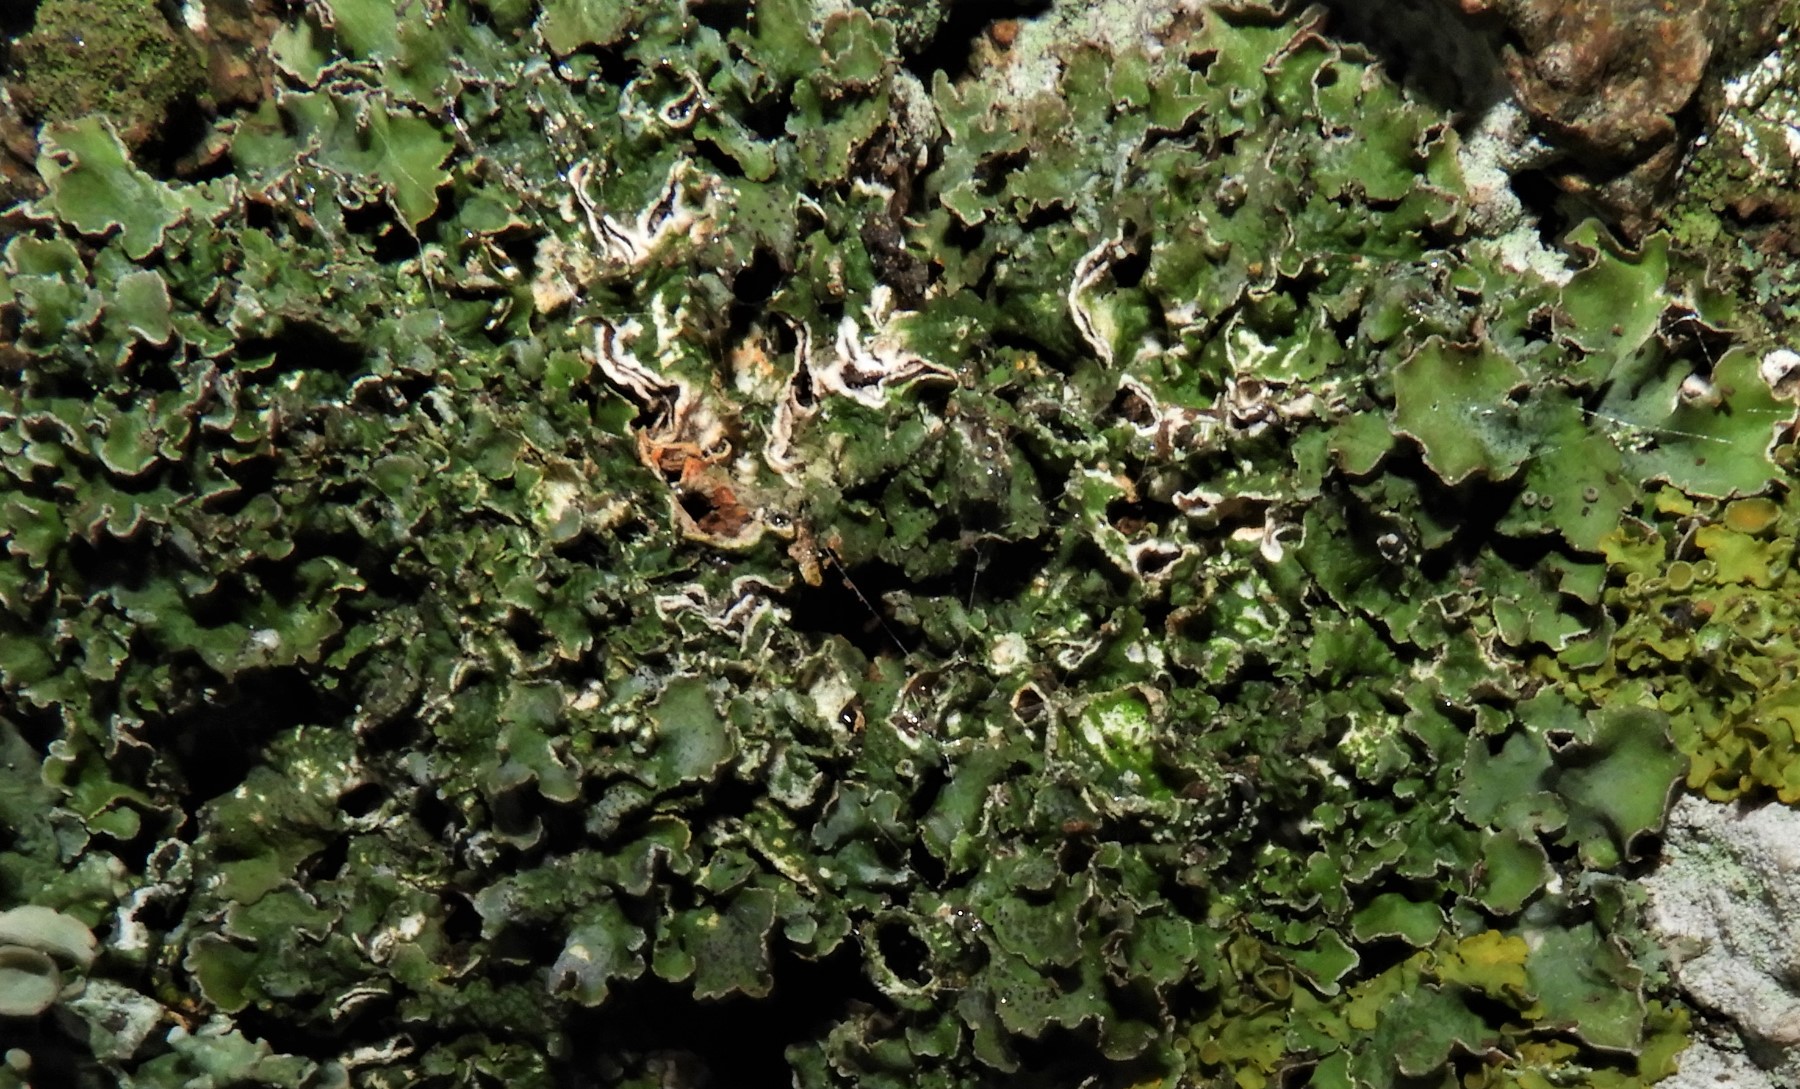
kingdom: Fungi
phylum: Ascomycota
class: Lecanoromycetes
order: Lecanorales
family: Parmeliaceae
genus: Pleurosticta
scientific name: Pleurosticta acetabulum
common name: stor skållav
